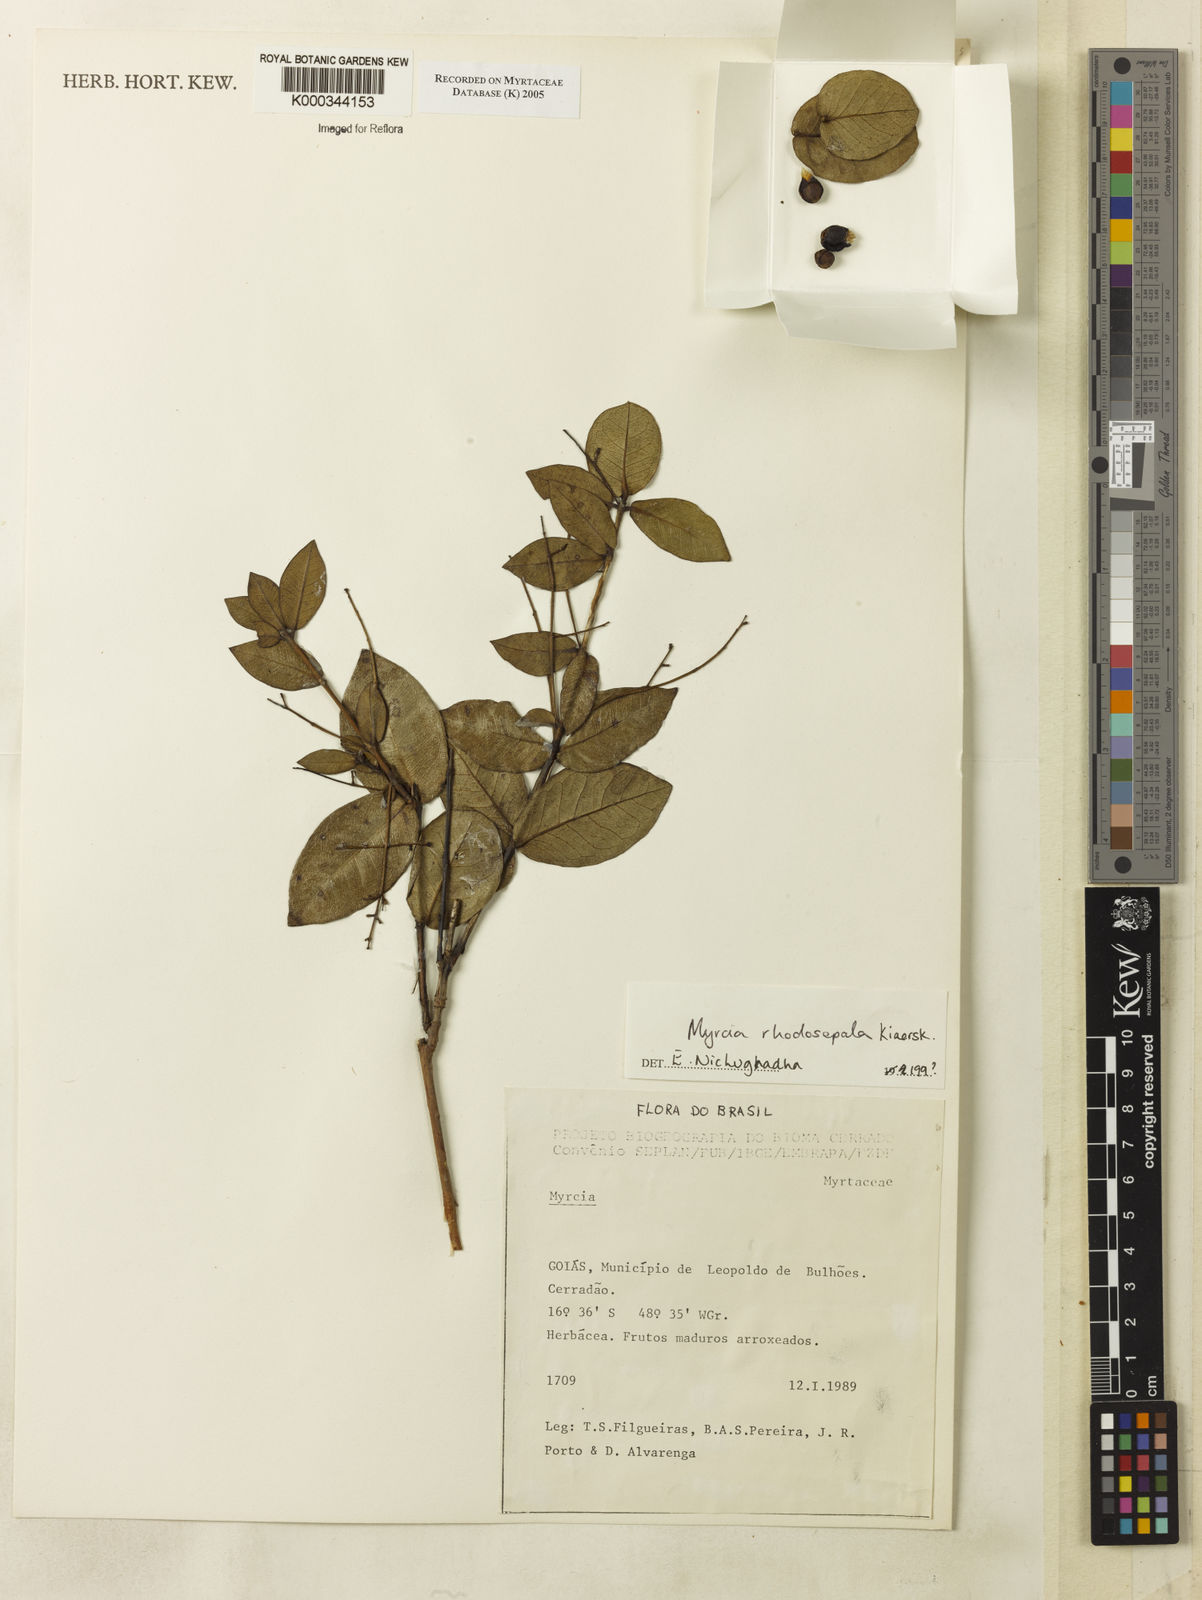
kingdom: Plantae
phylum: Tracheophyta
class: Magnoliopsida
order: Myrtales
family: Myrtaceae
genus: Myrcia
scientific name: Myrcia selloi
